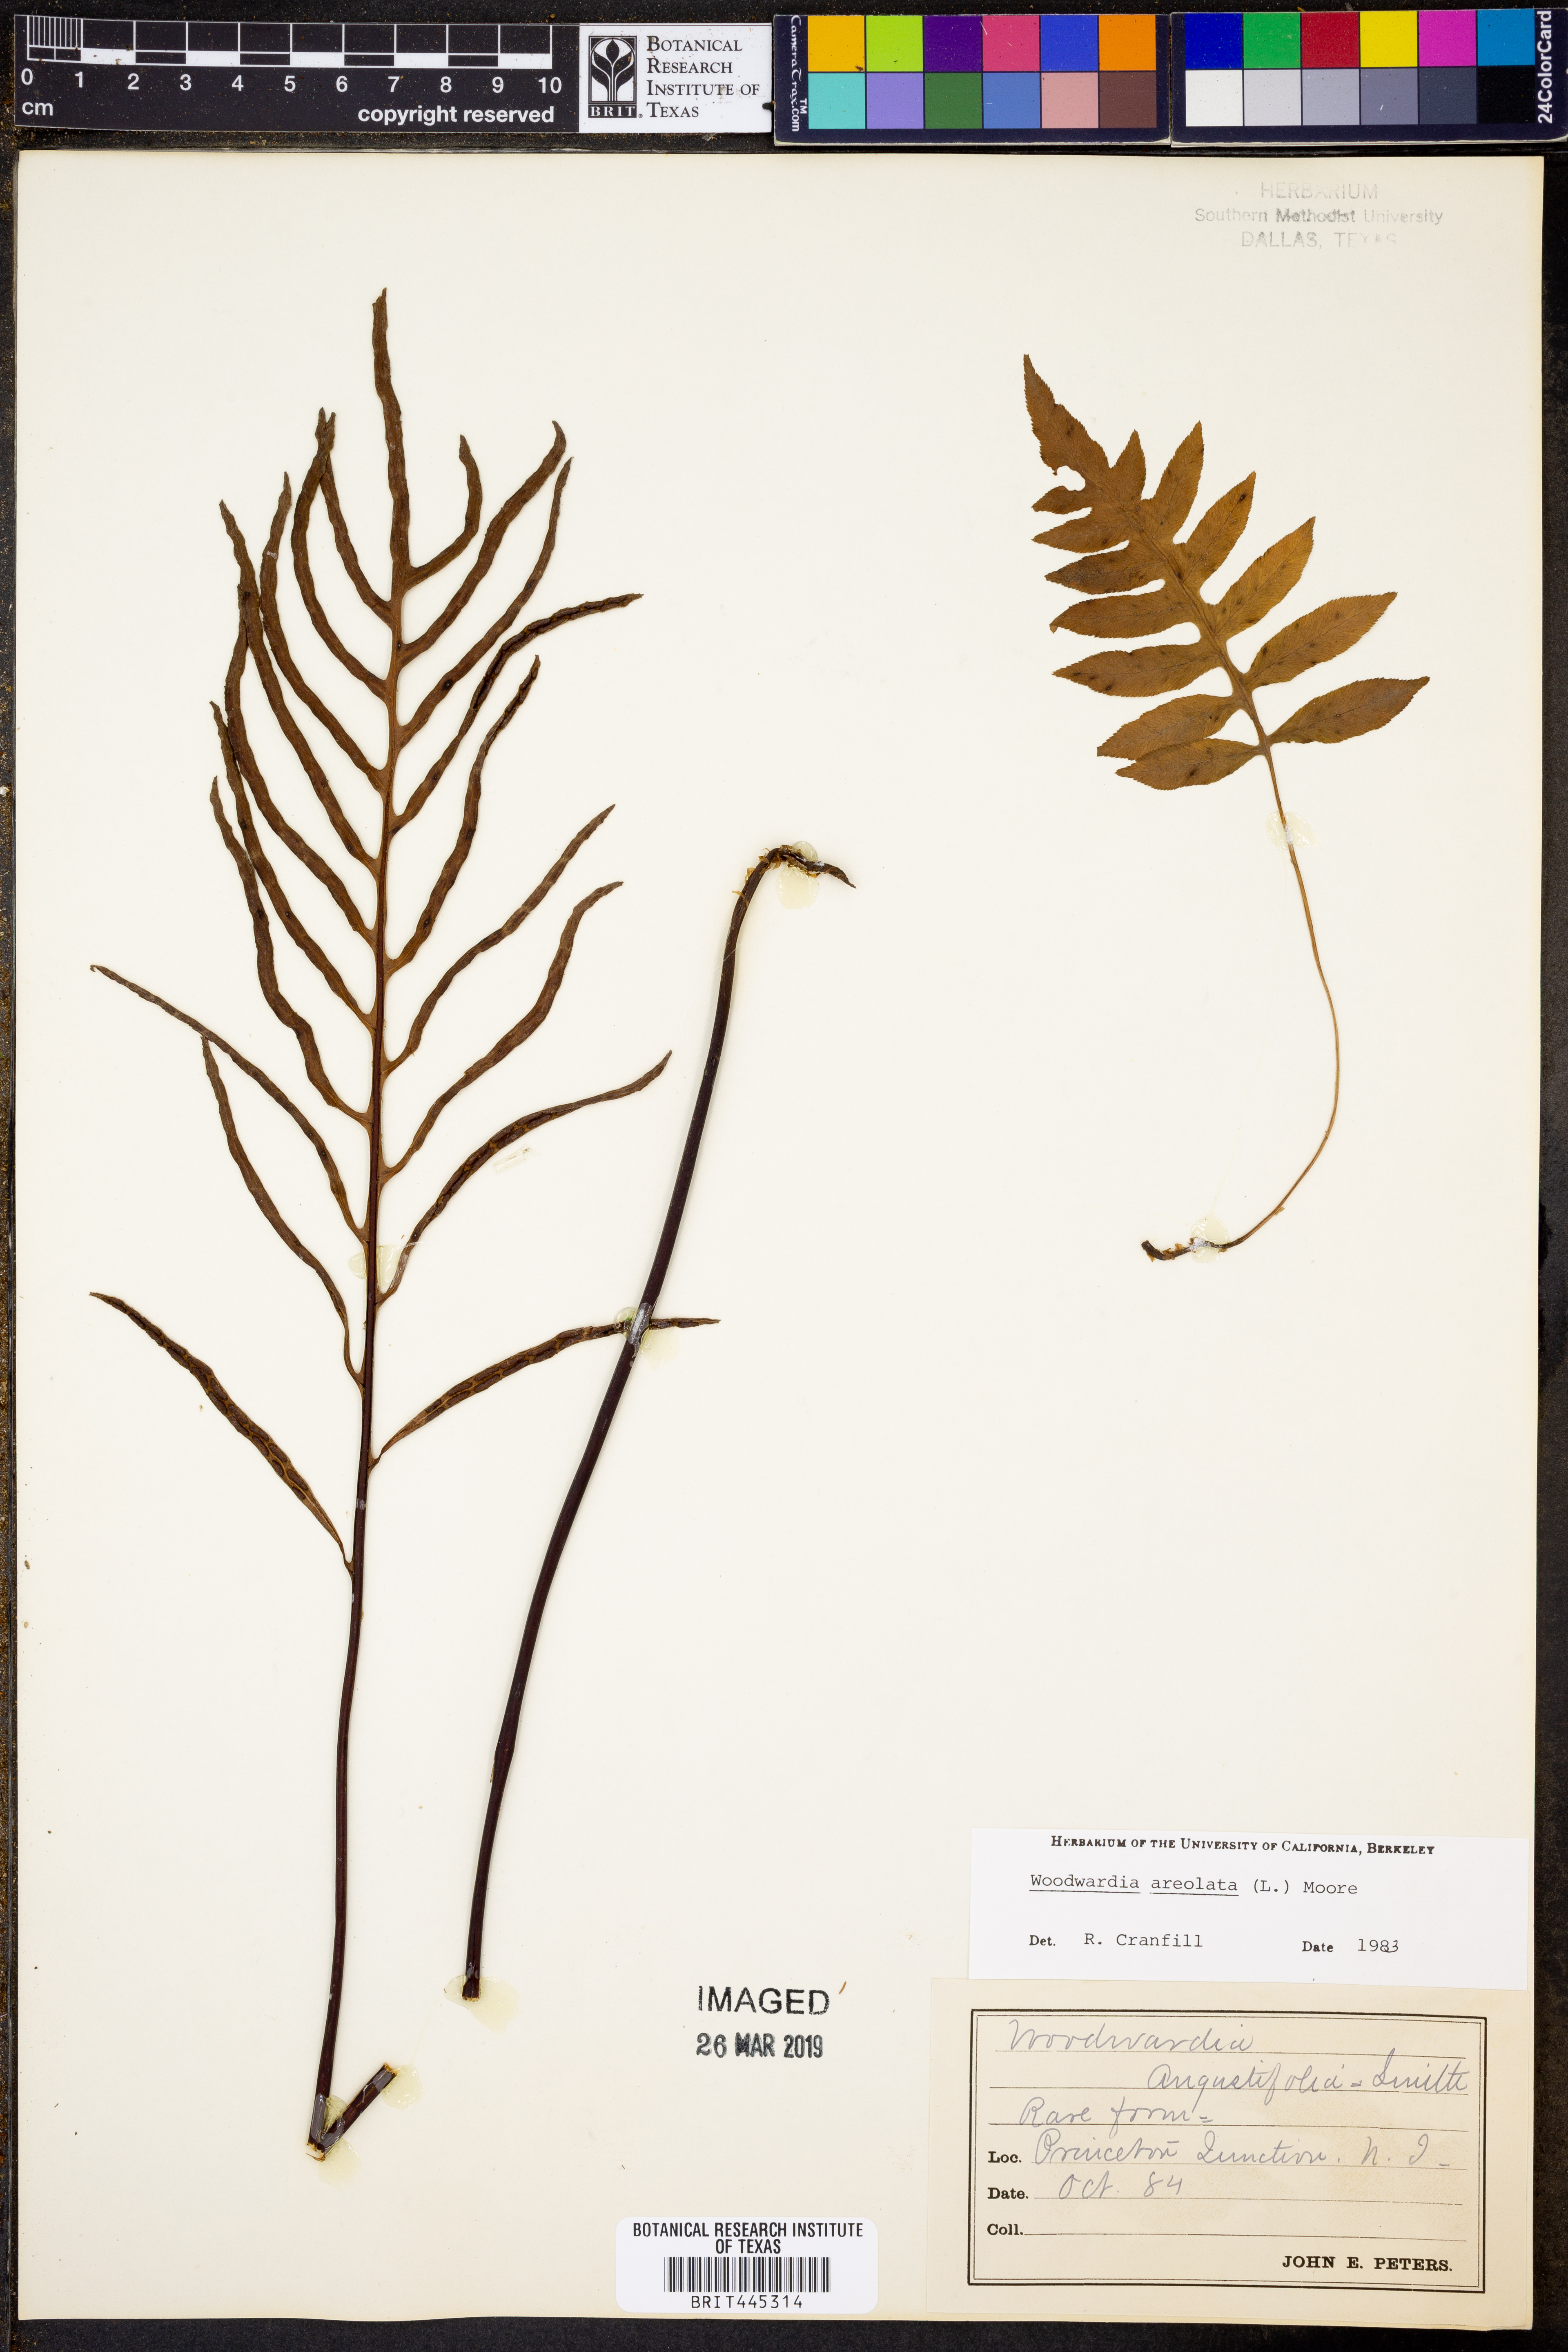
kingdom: Plantae
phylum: Tracheophyta
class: Polypodiopsida
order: Polypodiales
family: Blechnaceae
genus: Lorinseria
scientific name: Lorinseria areolata
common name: Dwarf chain fern
